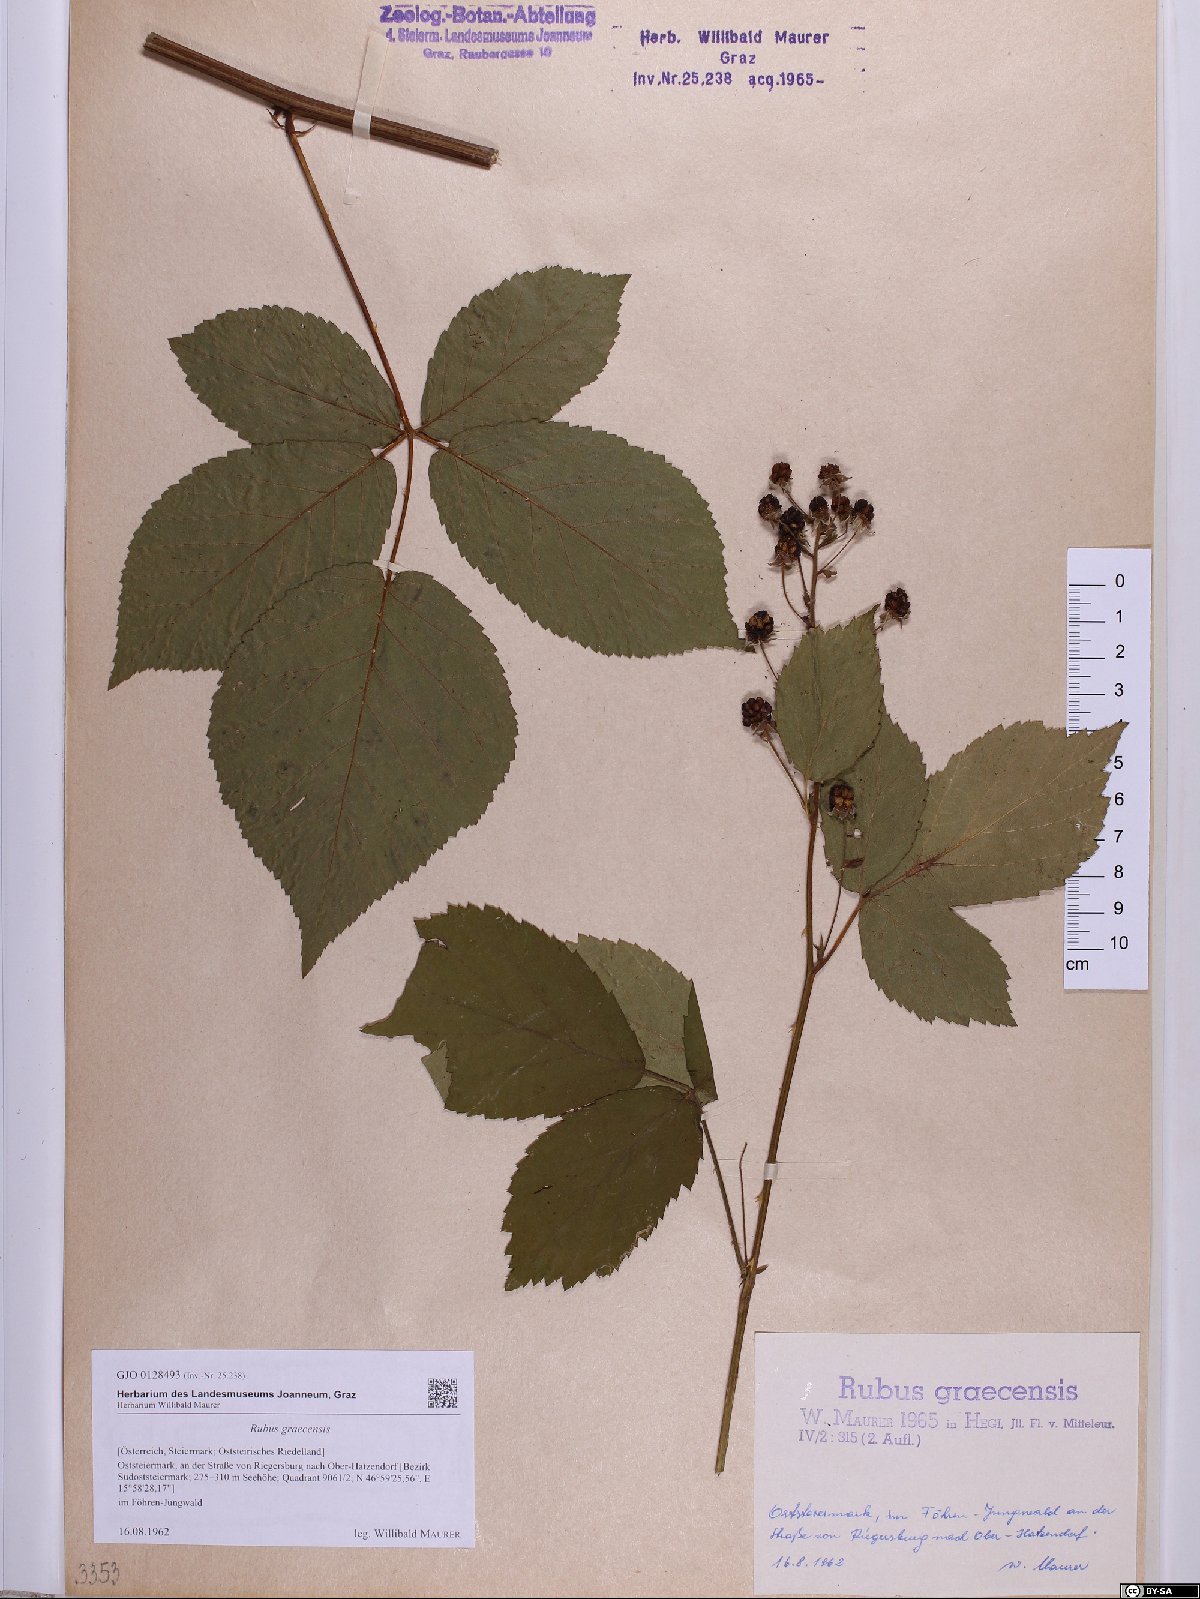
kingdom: Plantae
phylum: Tracheophyta
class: Magnoliopsida
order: Rosales
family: Rosaceae
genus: Rubus
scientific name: Rubus graecensis
